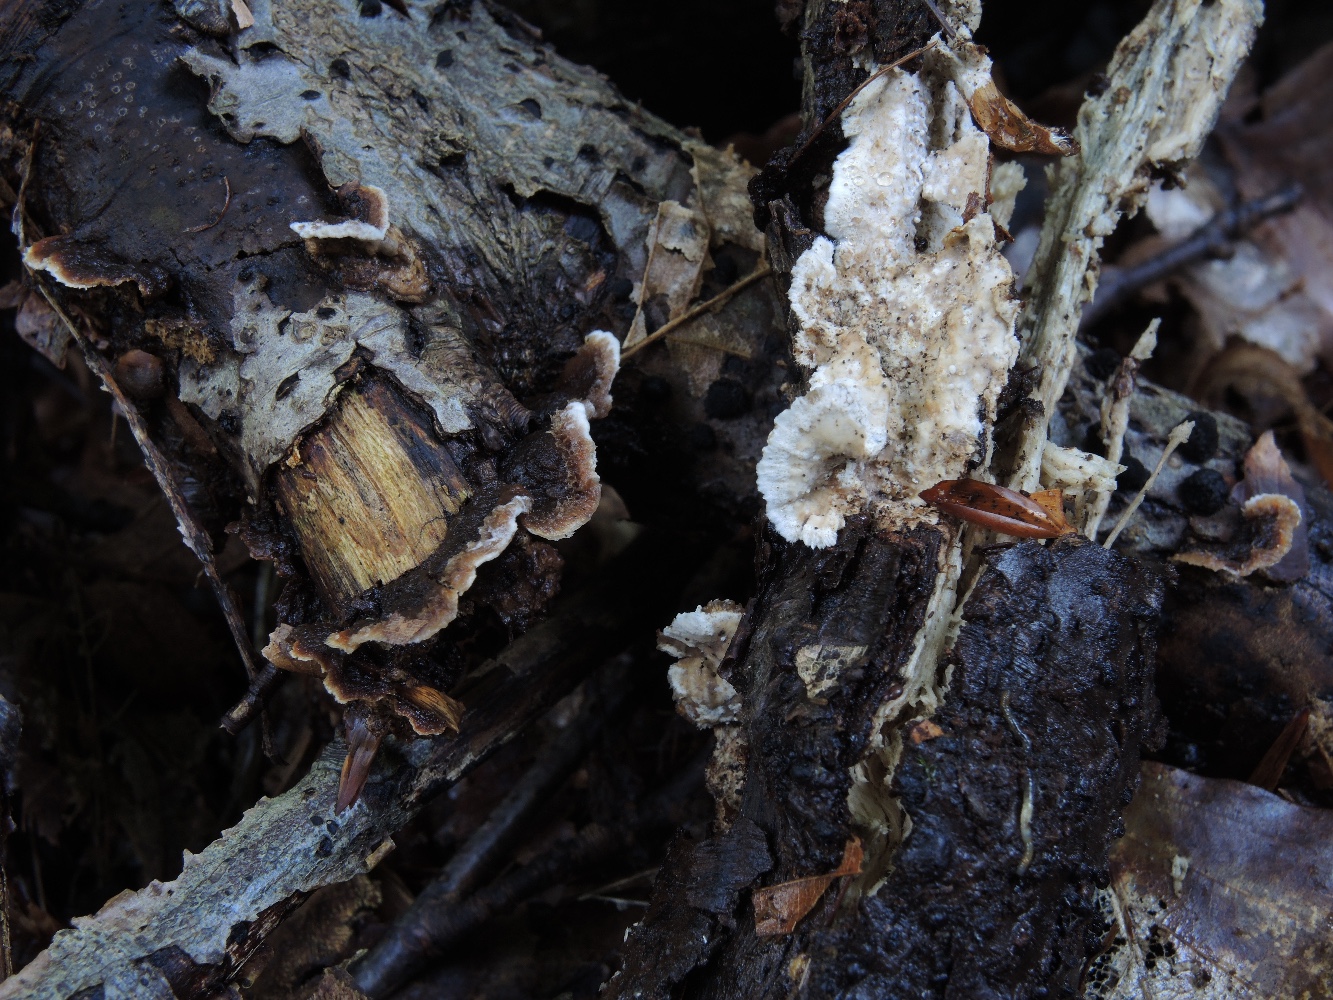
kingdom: Fungi
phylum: Basidiomycota
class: Agaricomycetes
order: Russulales
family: Hericiaceae
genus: Laxitextum
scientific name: Laxitextum bicolor
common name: tvefarvet filtskind
